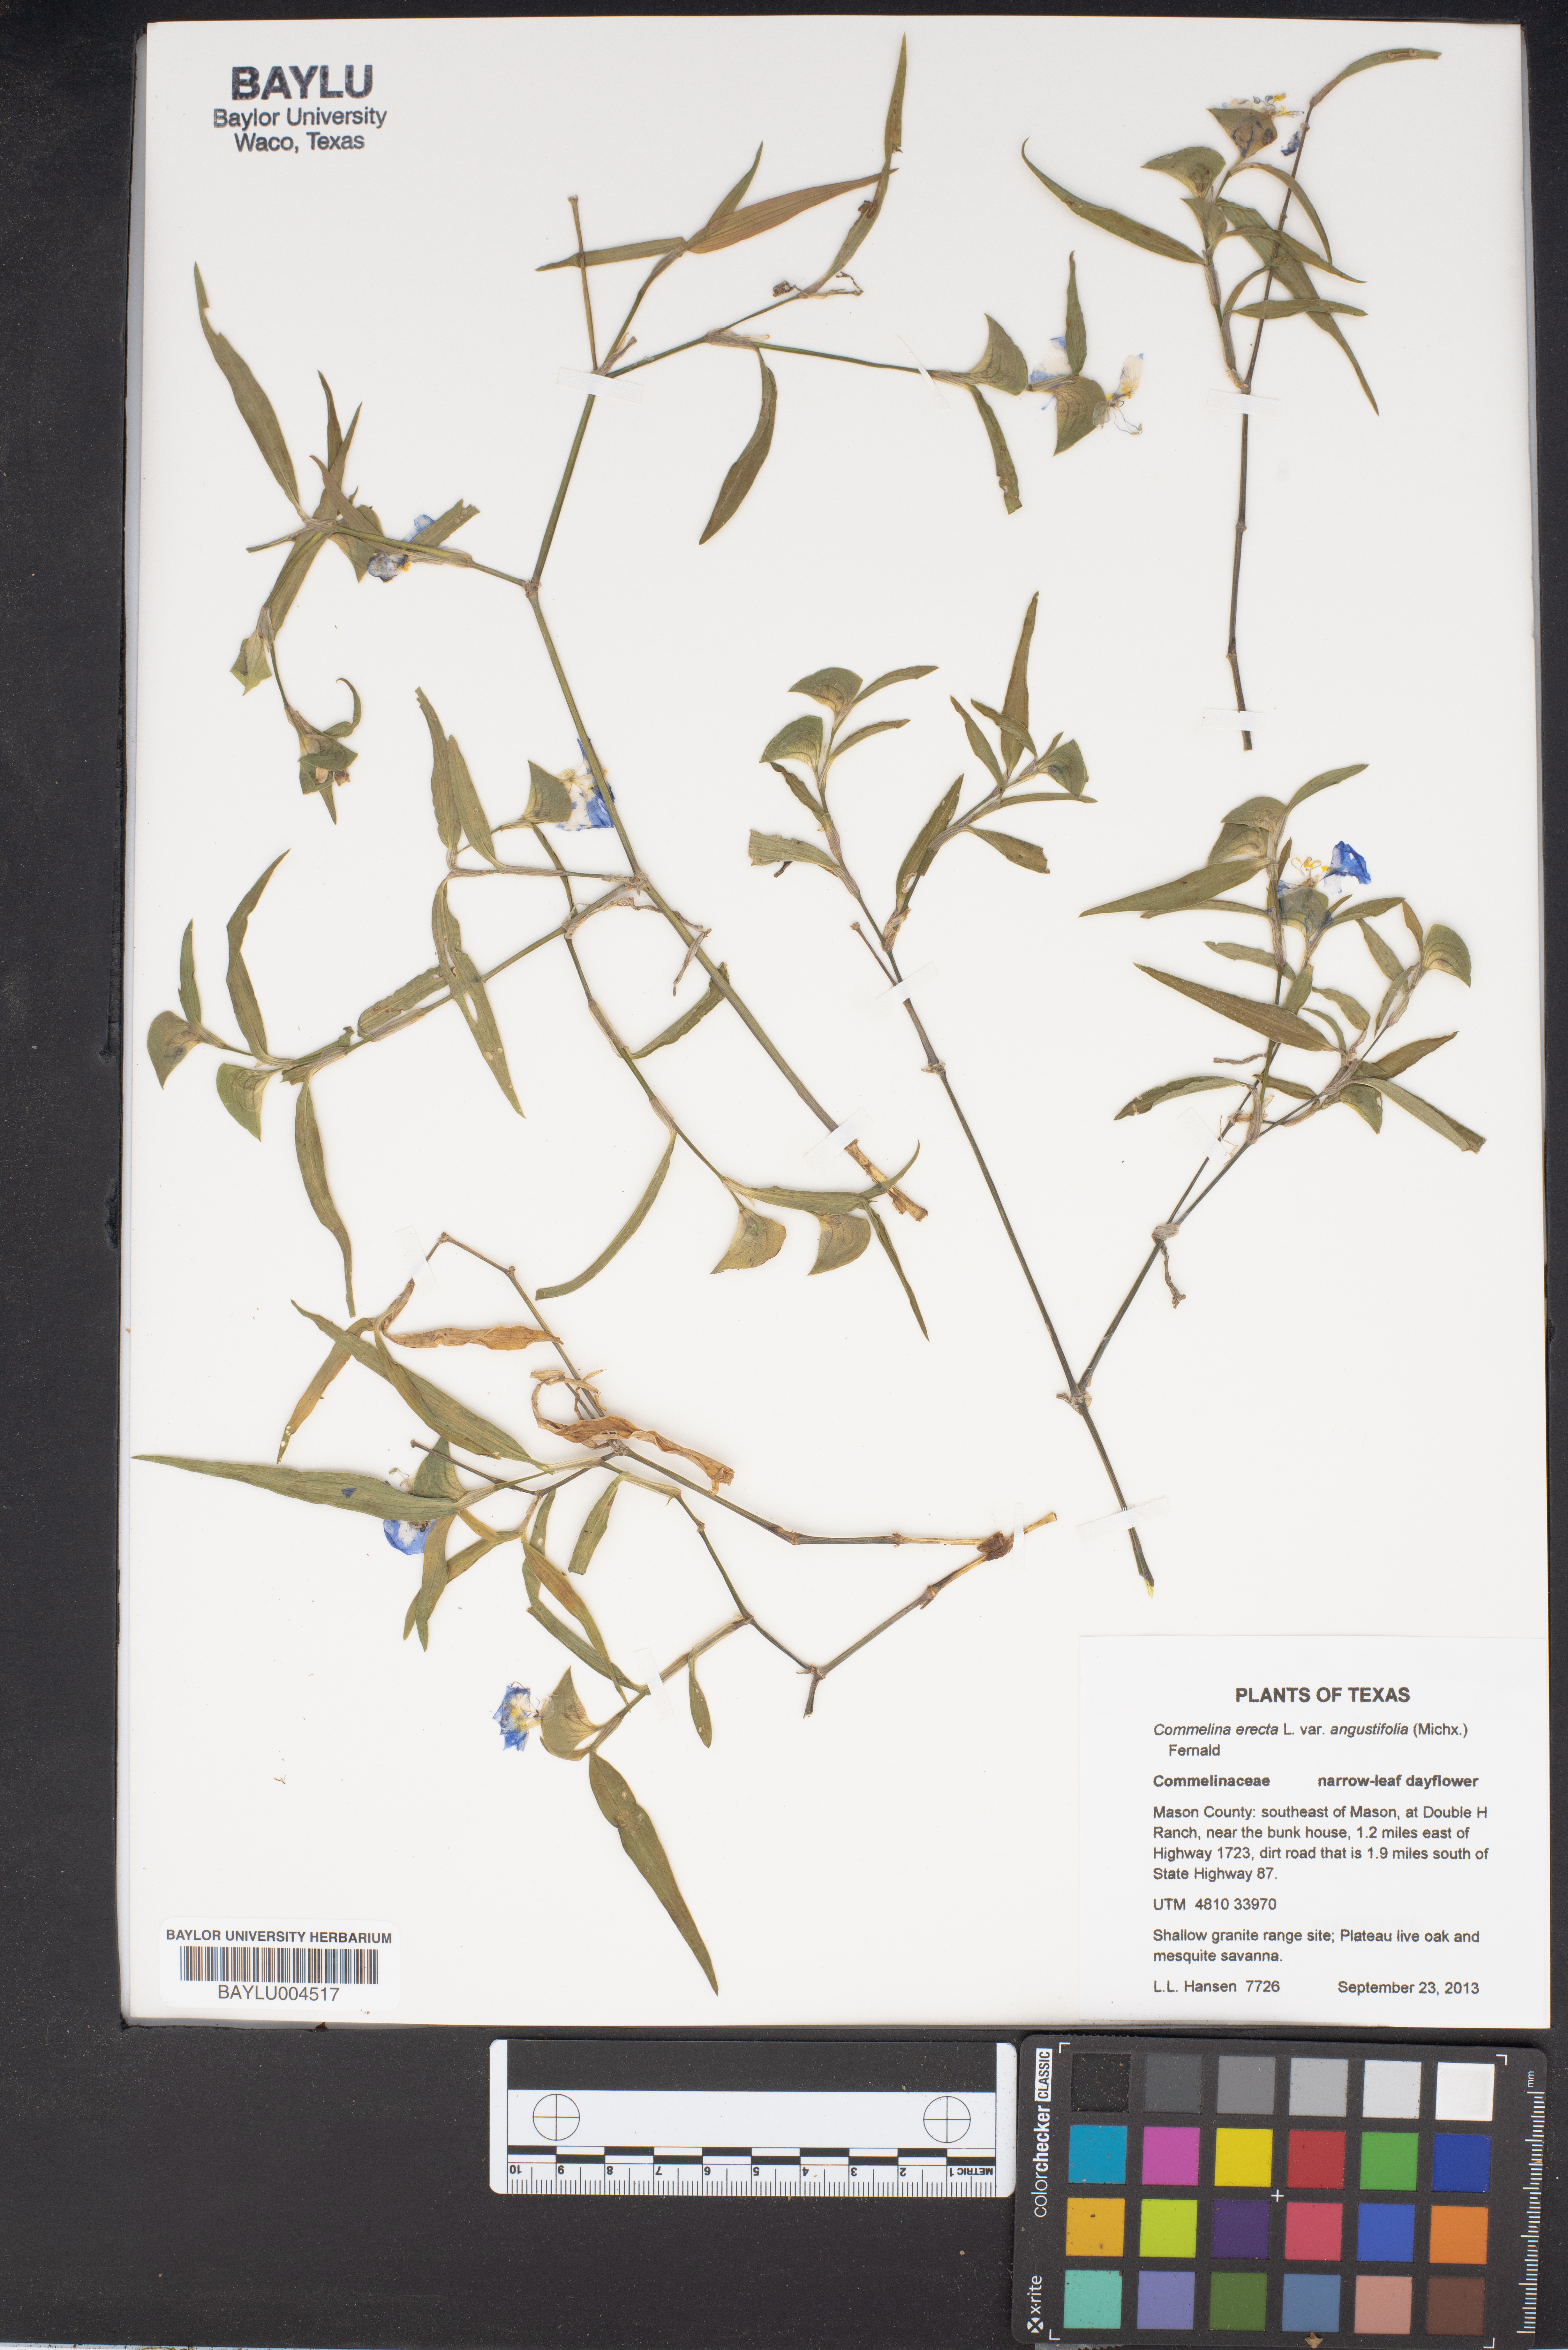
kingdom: Plantae
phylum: Tracheophyta
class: Liliopsida
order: Commelinales
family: Commelinaceae
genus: Commelina
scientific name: Commelina erecta
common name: Blousel blommetjie
